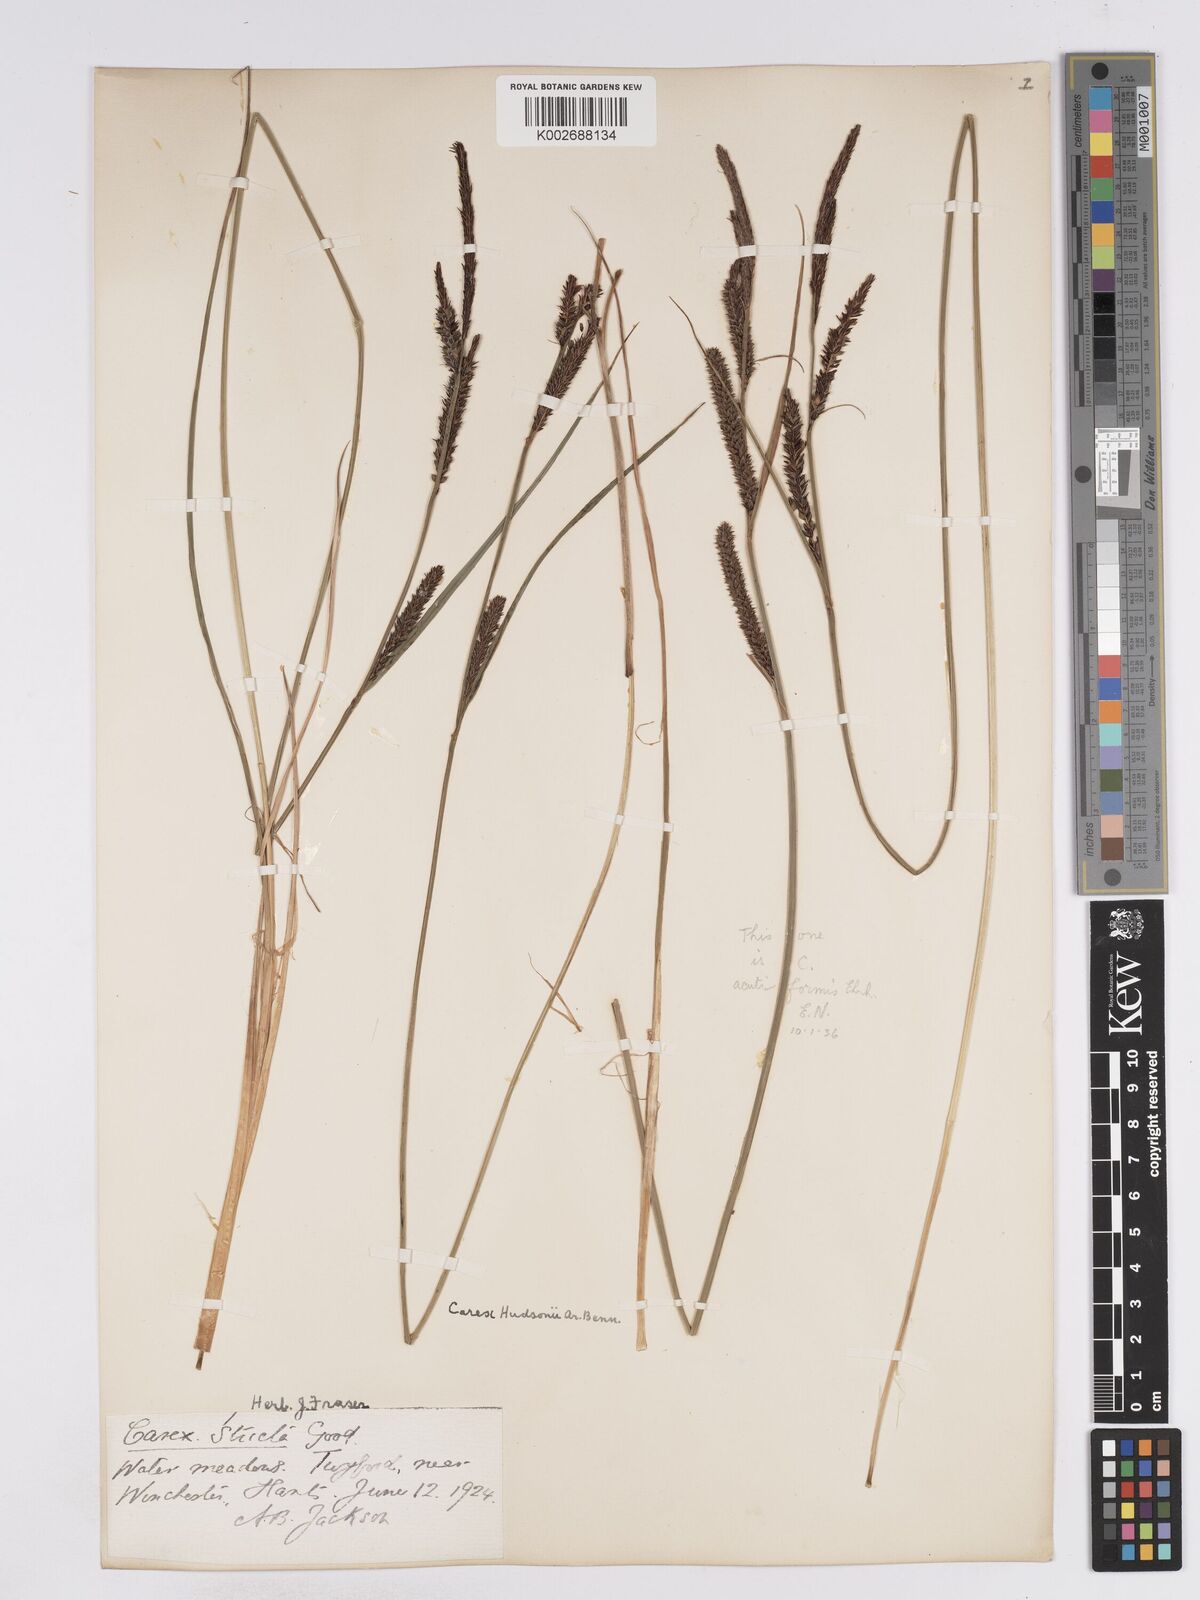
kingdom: Plantae
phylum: Tracheophyta
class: Liliopsida
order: Poales
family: Cyperaceae
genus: Carex
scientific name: Carex elata
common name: Tufted sedge
